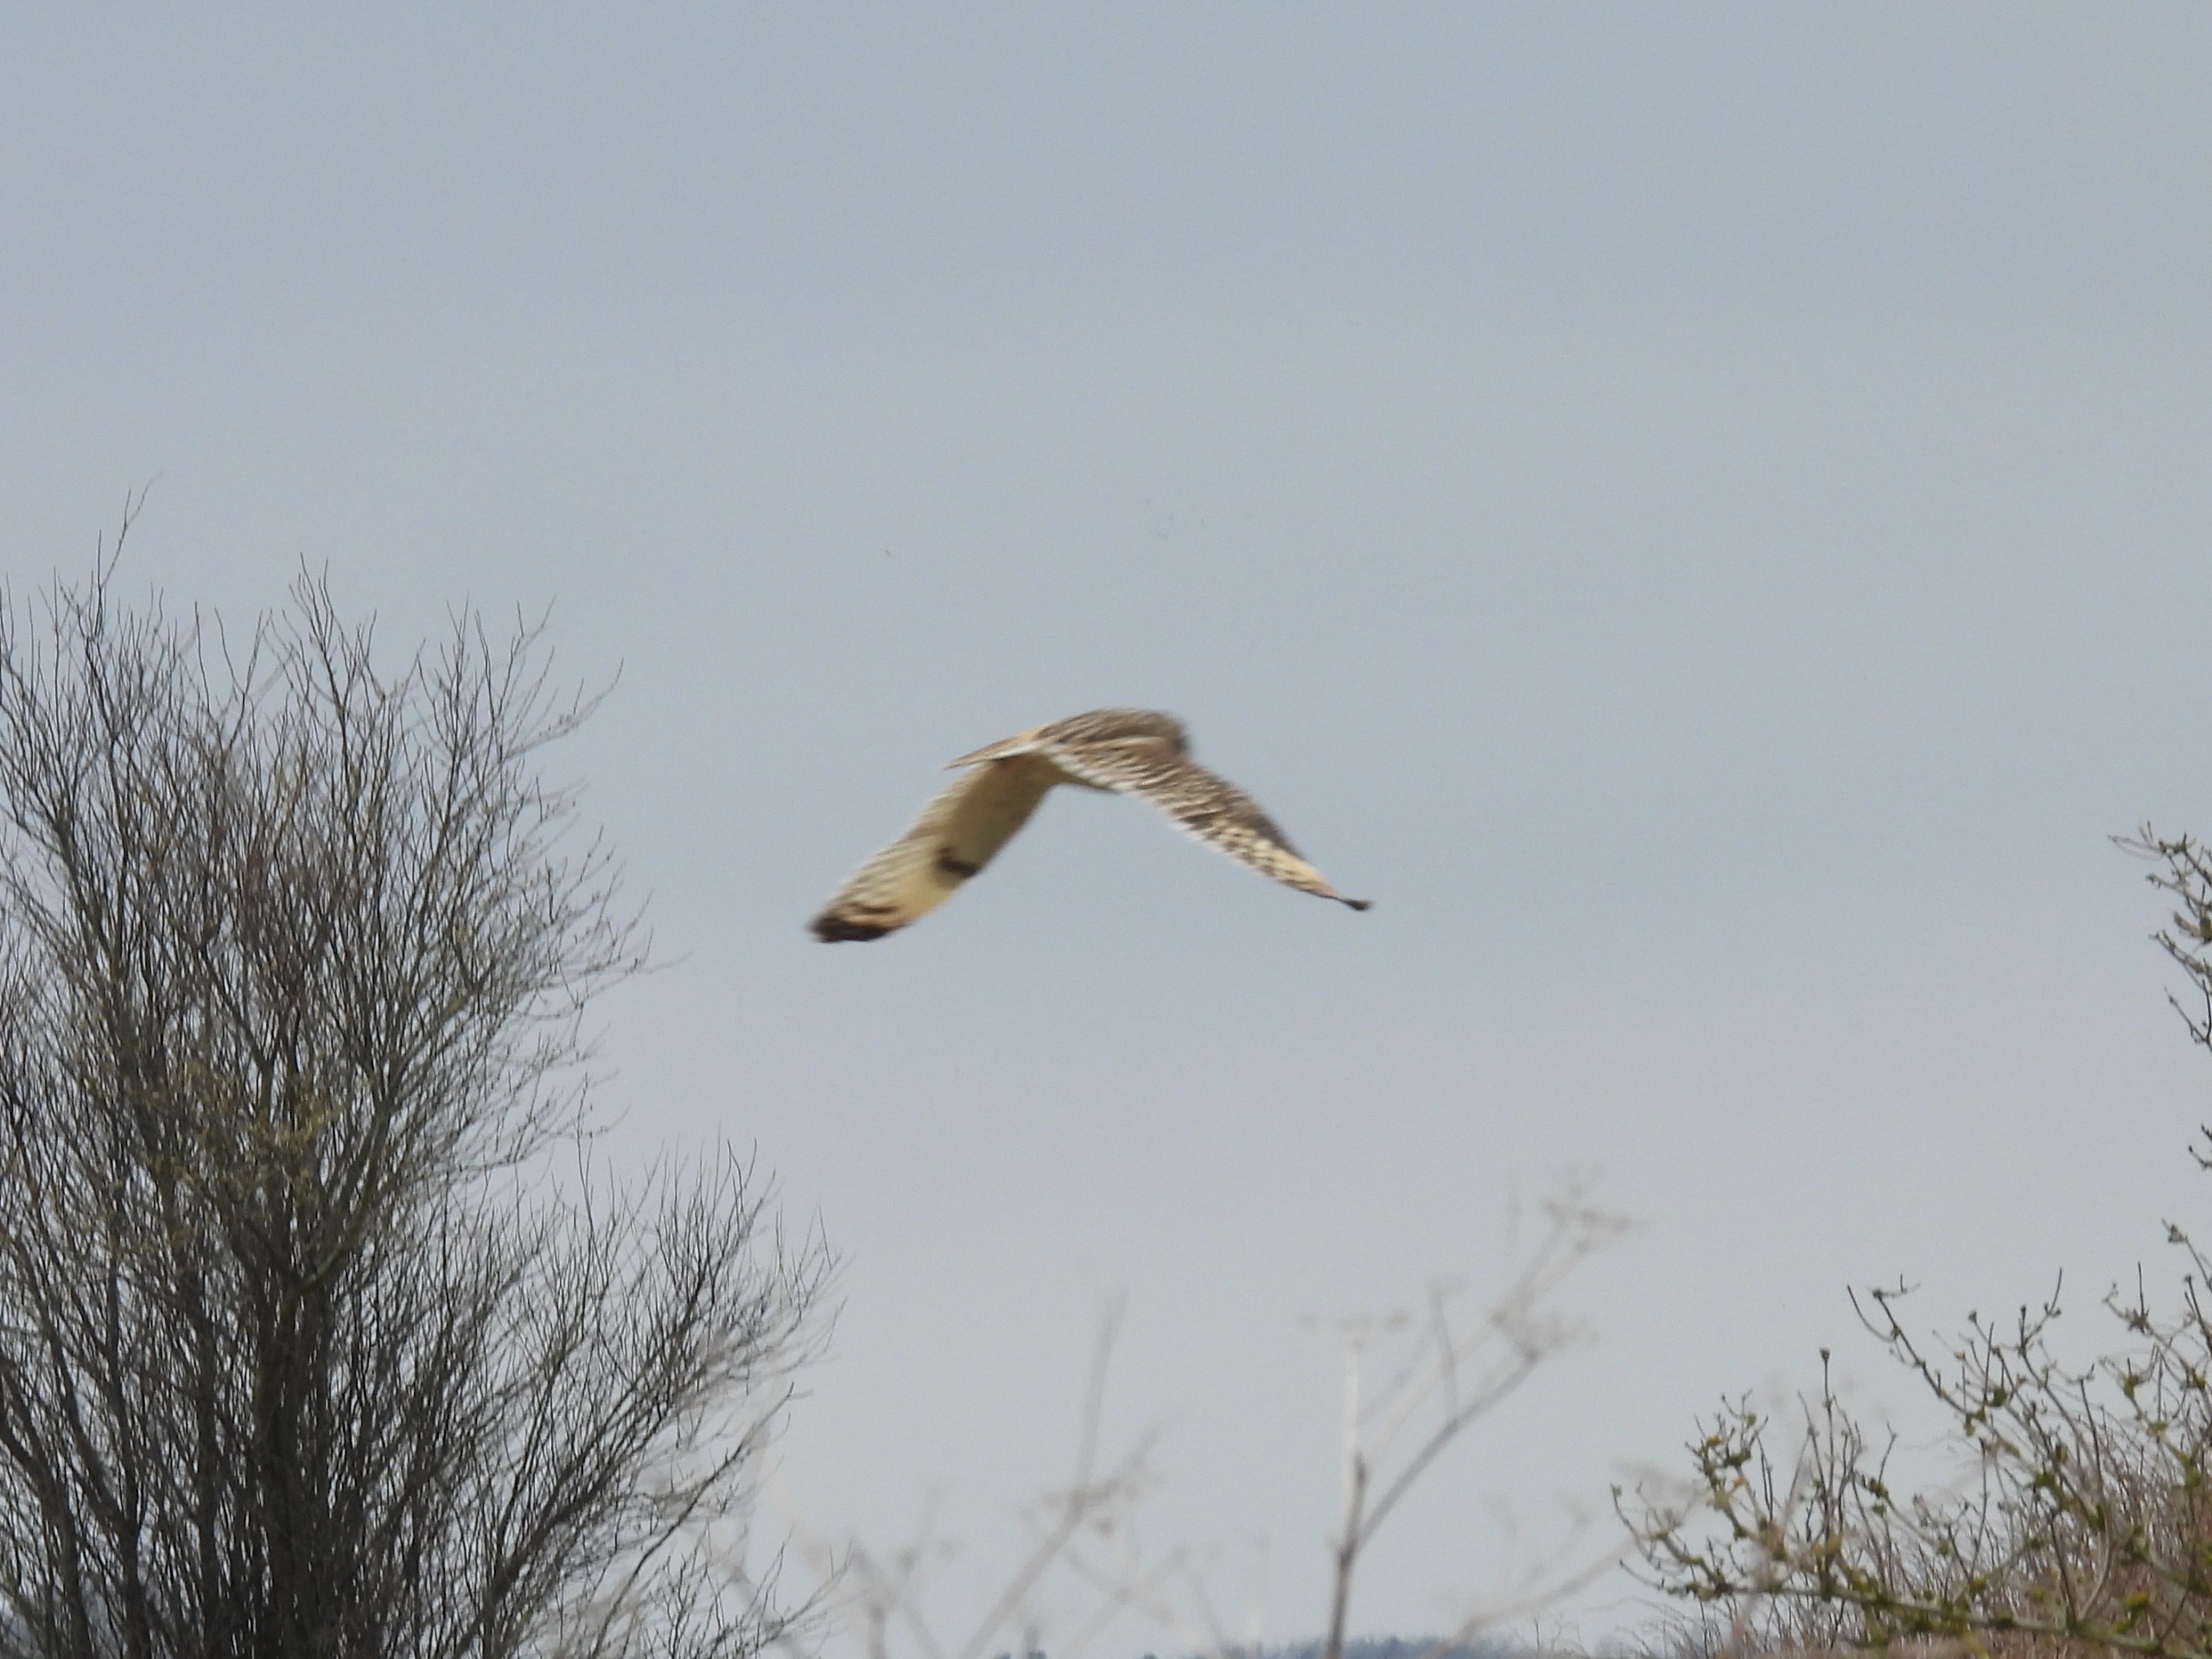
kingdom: Animalia
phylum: Chordata
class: Aves
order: Strigiformes
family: Strigidae
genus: Asio
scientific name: Asio flammeus
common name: Mosehornugle
